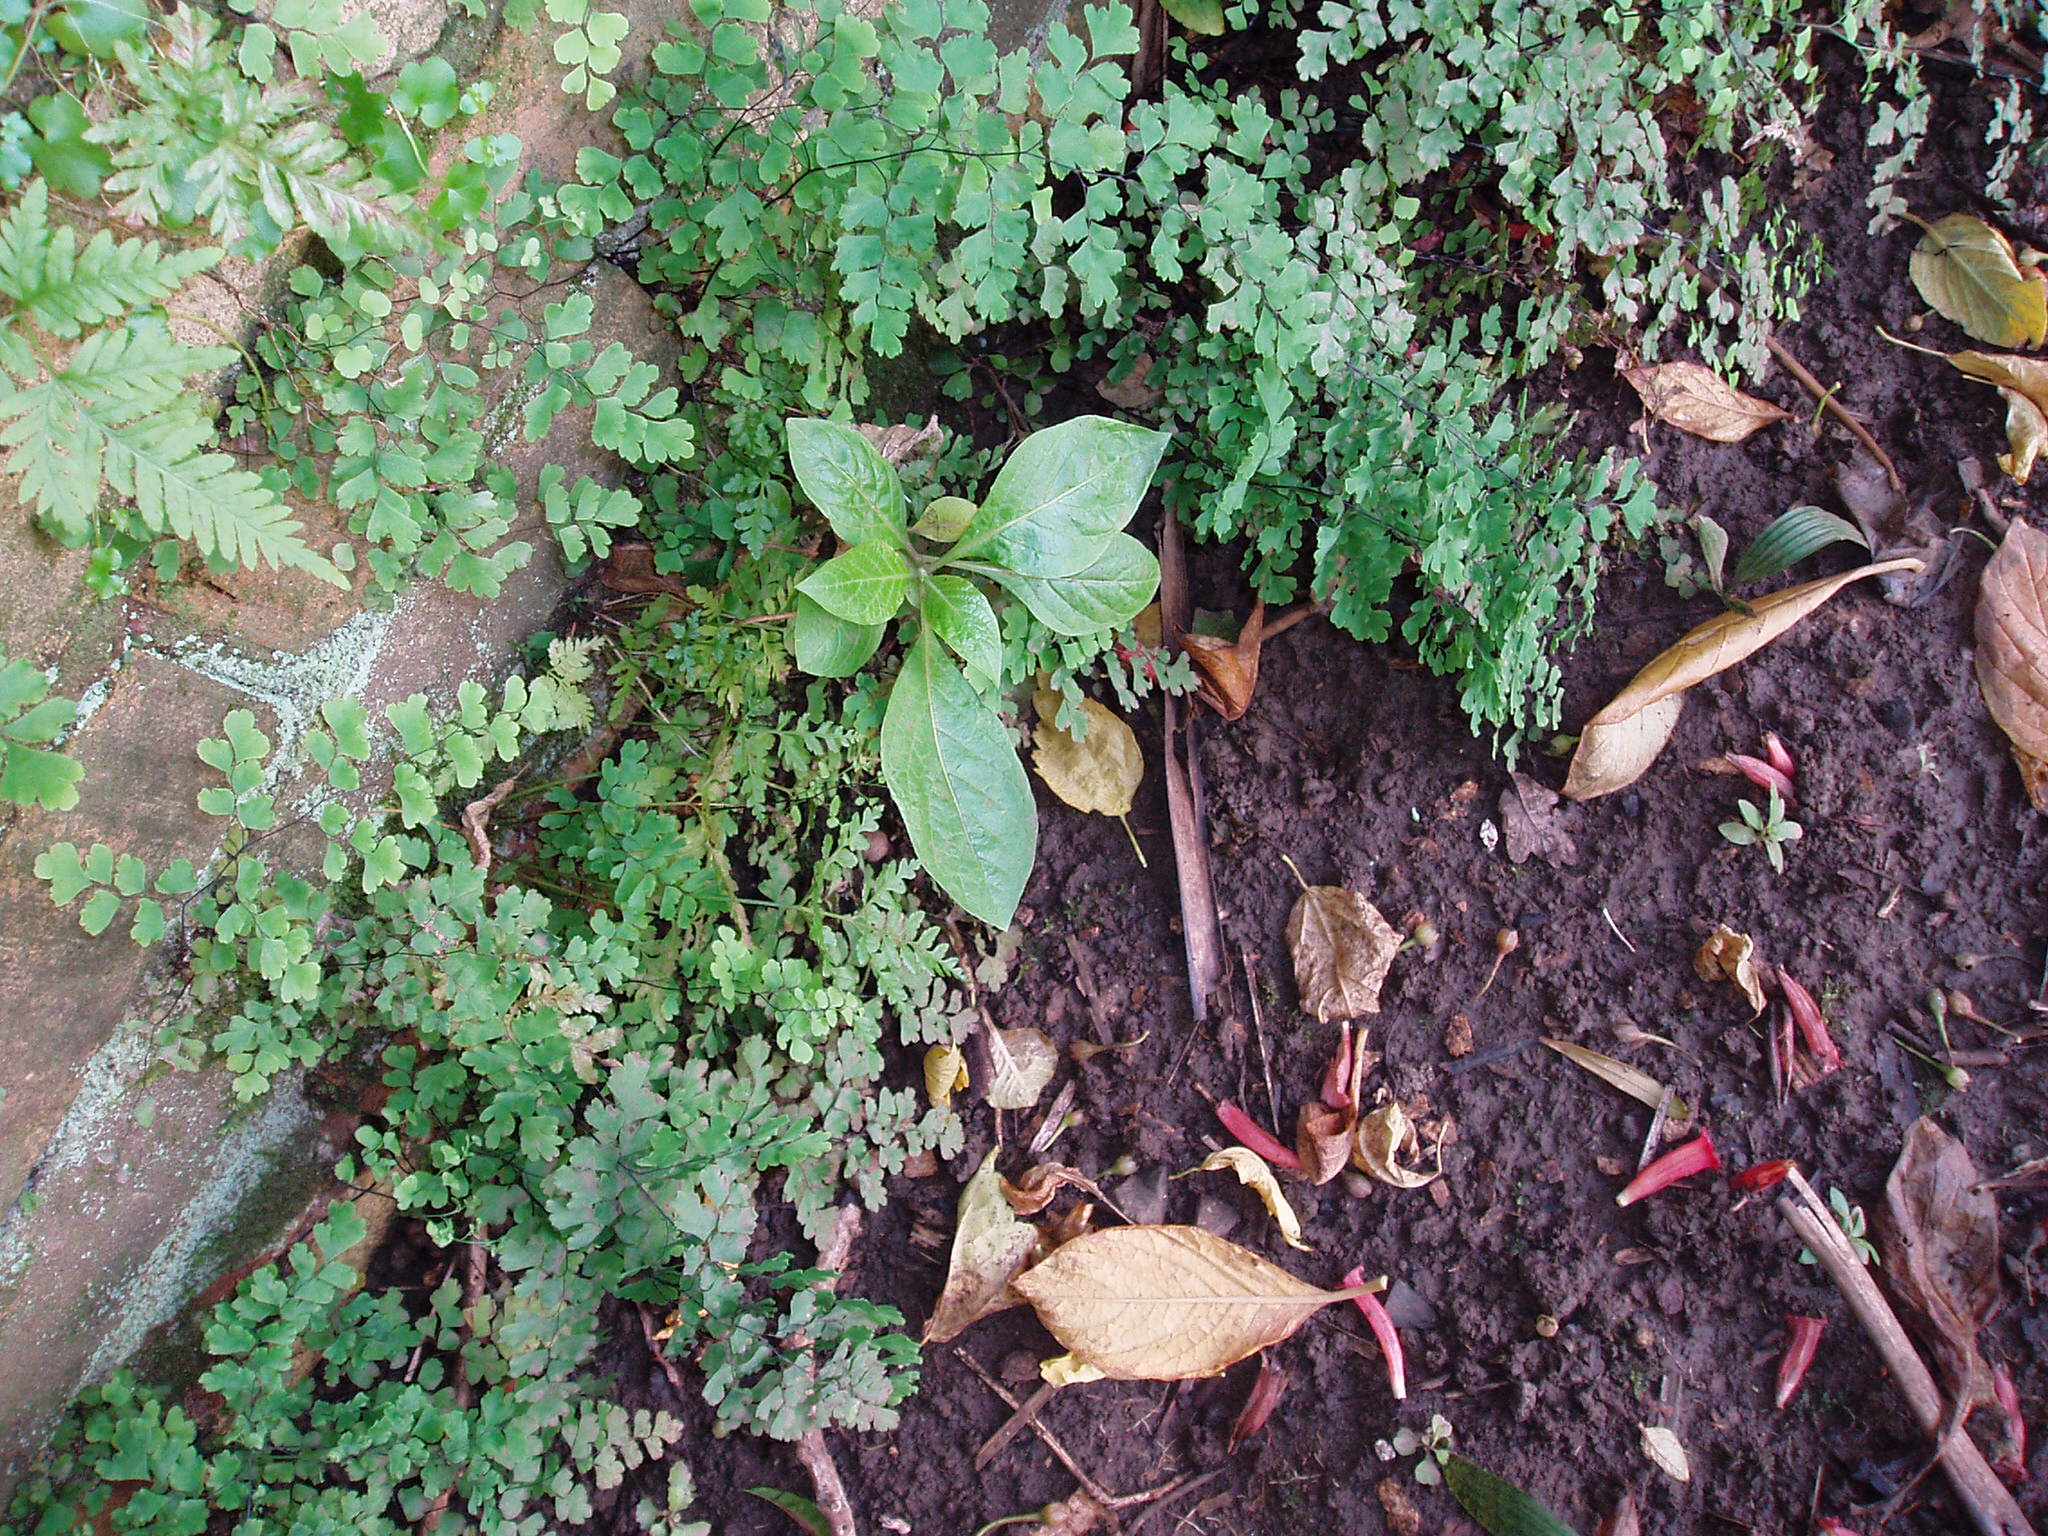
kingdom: Plantae
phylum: Tracheophyta
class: Magnoliopsida
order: Solanales
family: Solanaceae
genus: Iochroma
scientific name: Iochroma gesnerioides
